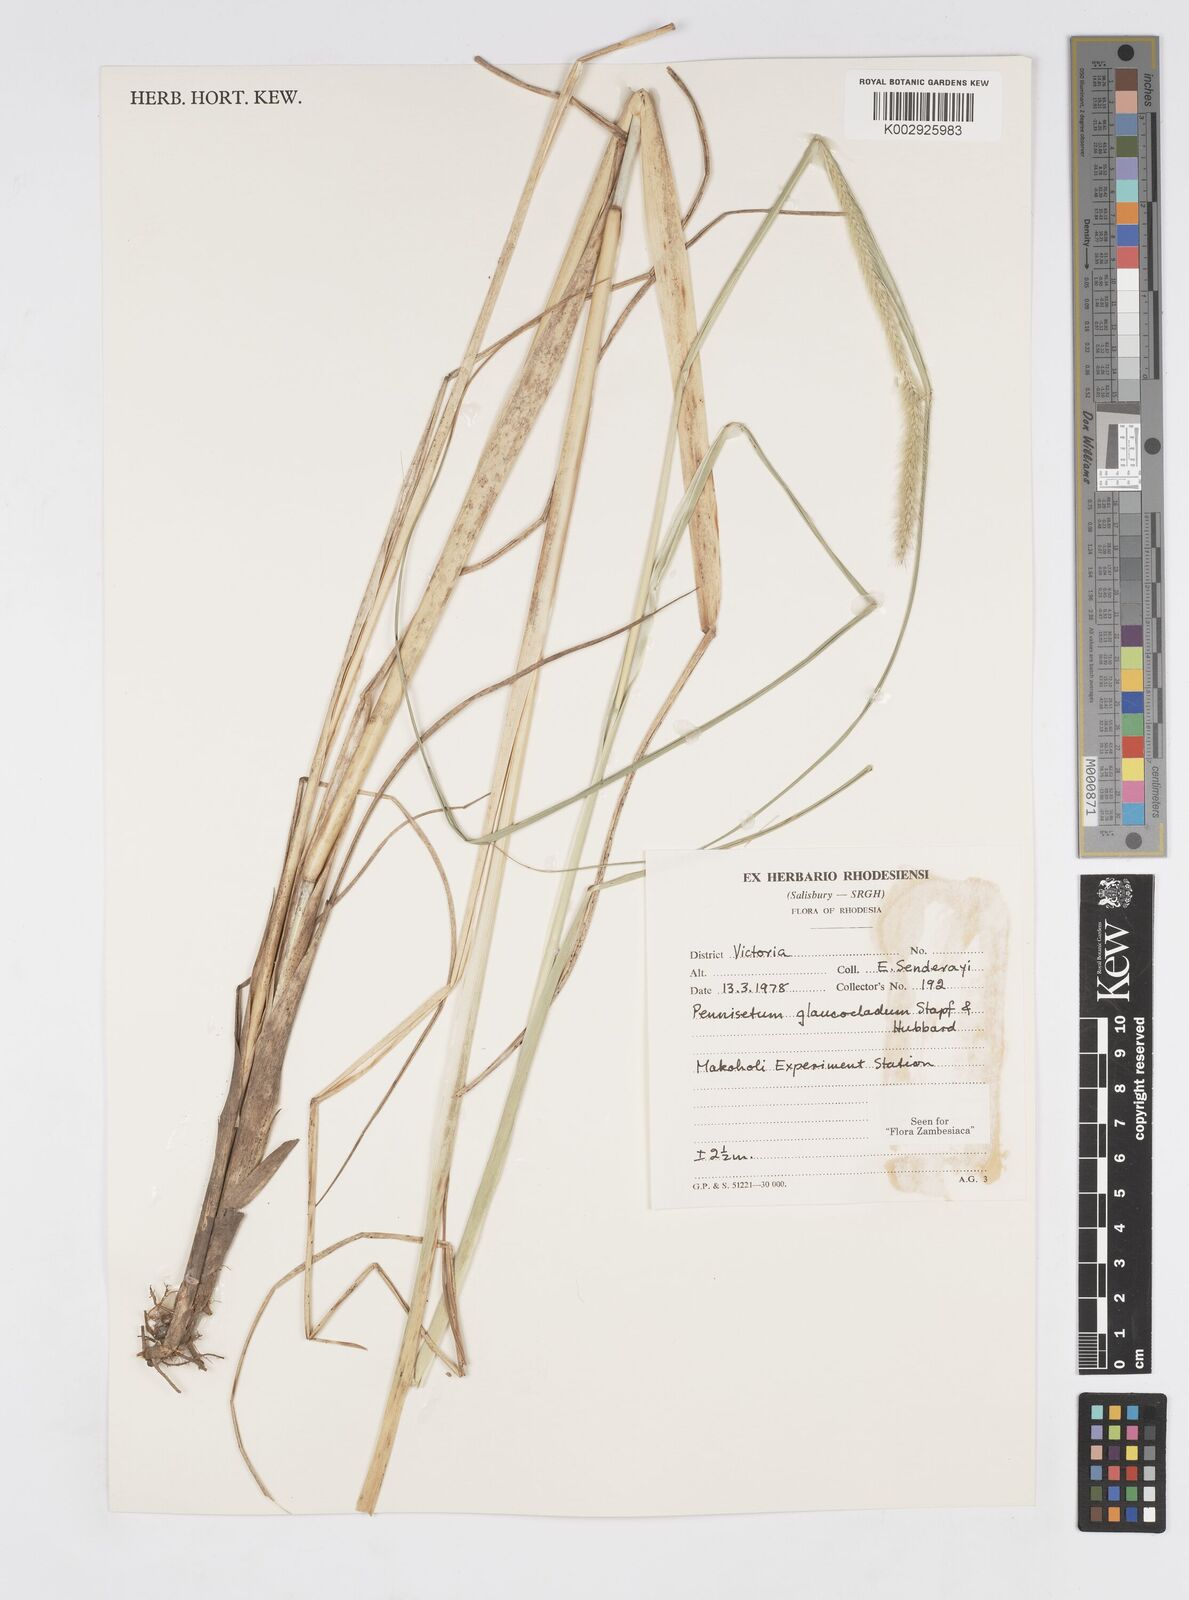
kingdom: Plantae
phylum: Tracheophyta
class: Liliopsida
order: Poales
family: Poaceae
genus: Cenchrus
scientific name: Cenchrus caudatus
